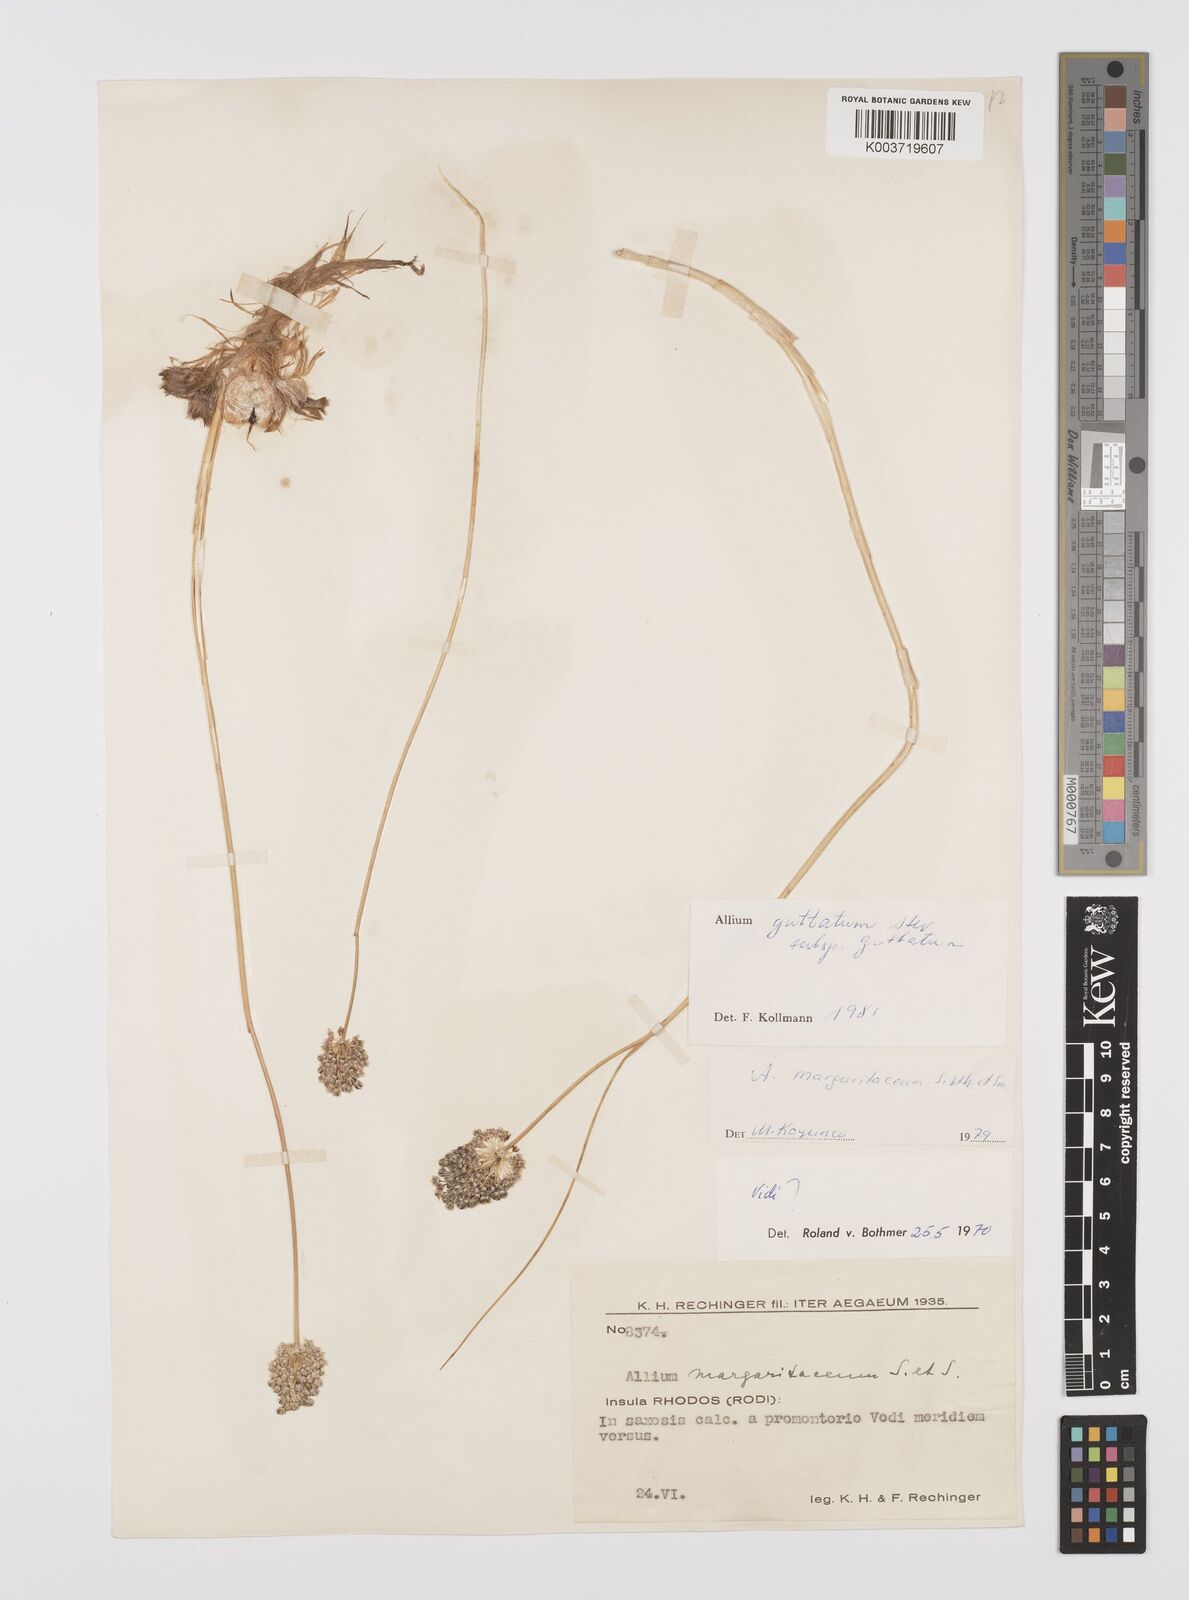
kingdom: Plantae
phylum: Tracheophyta
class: Liliopsida
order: Asparagales
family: Amaryllidaceae
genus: Allium
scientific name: Allium guttatum
